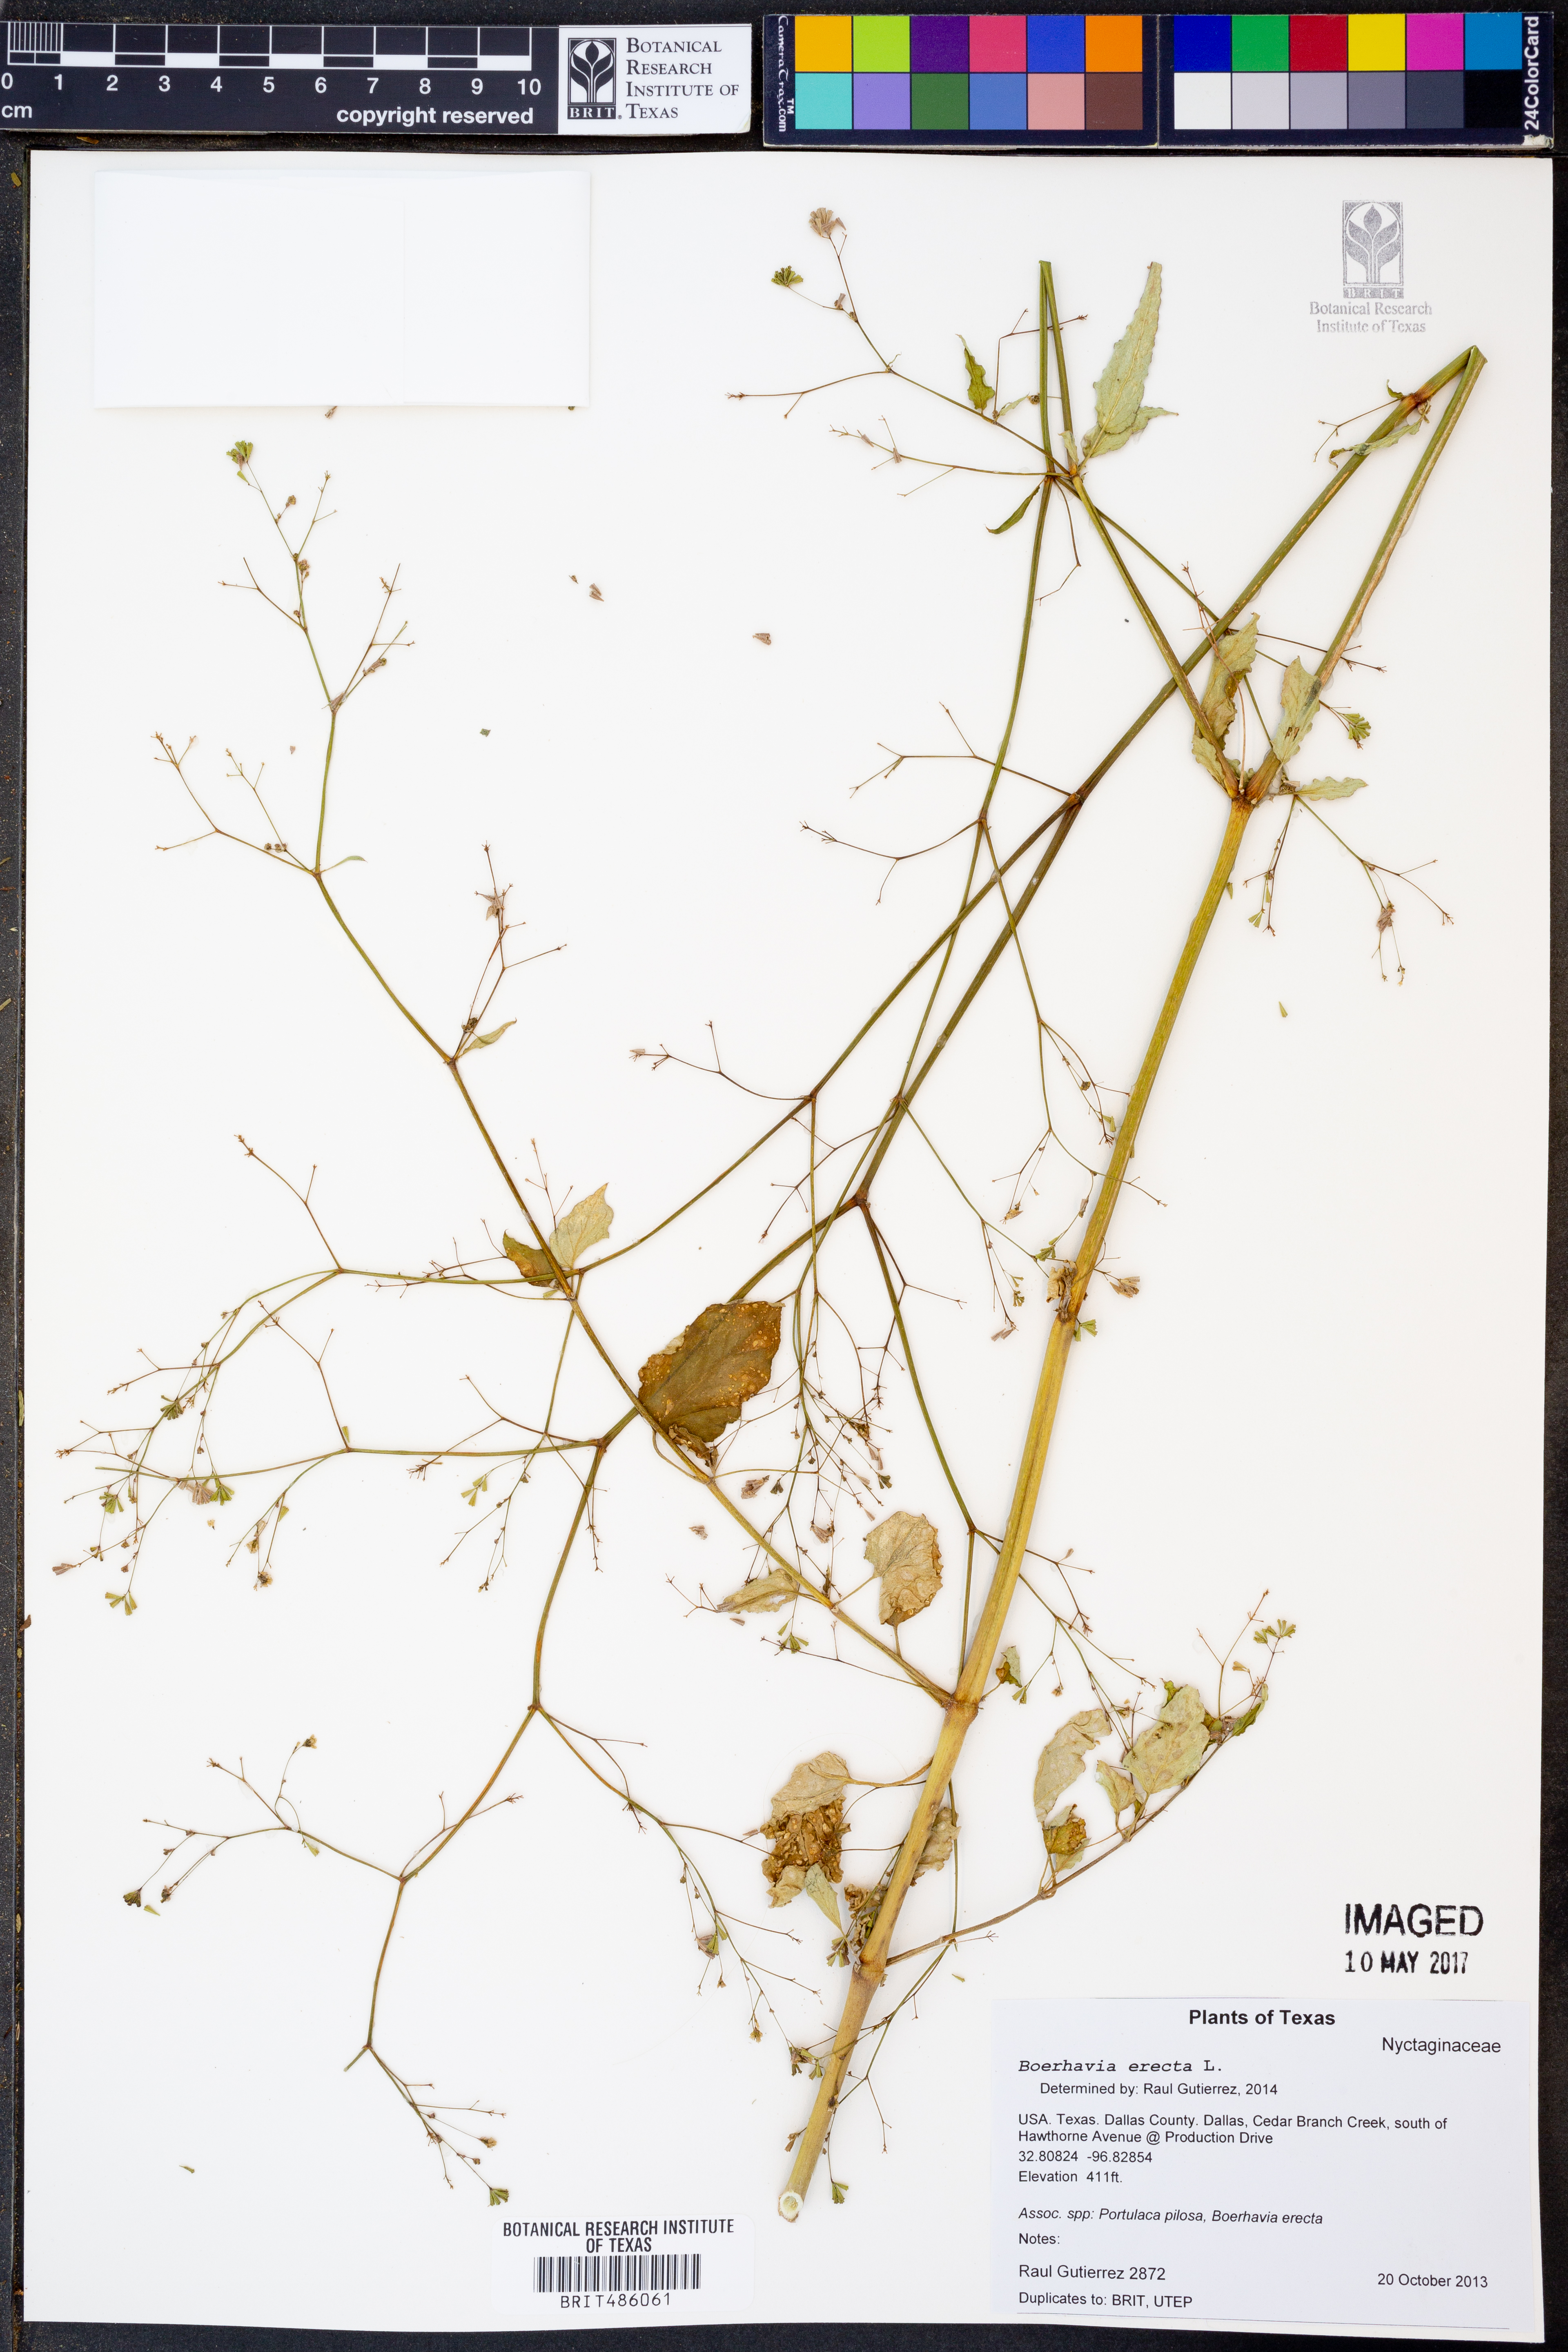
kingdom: Plantae
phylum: Tracheophyta
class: Magnoliopsida
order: Caryophyllales
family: Nyctaginaceae
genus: Boerhavia
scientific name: Boerhavia erecta
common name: Erect spiderling
